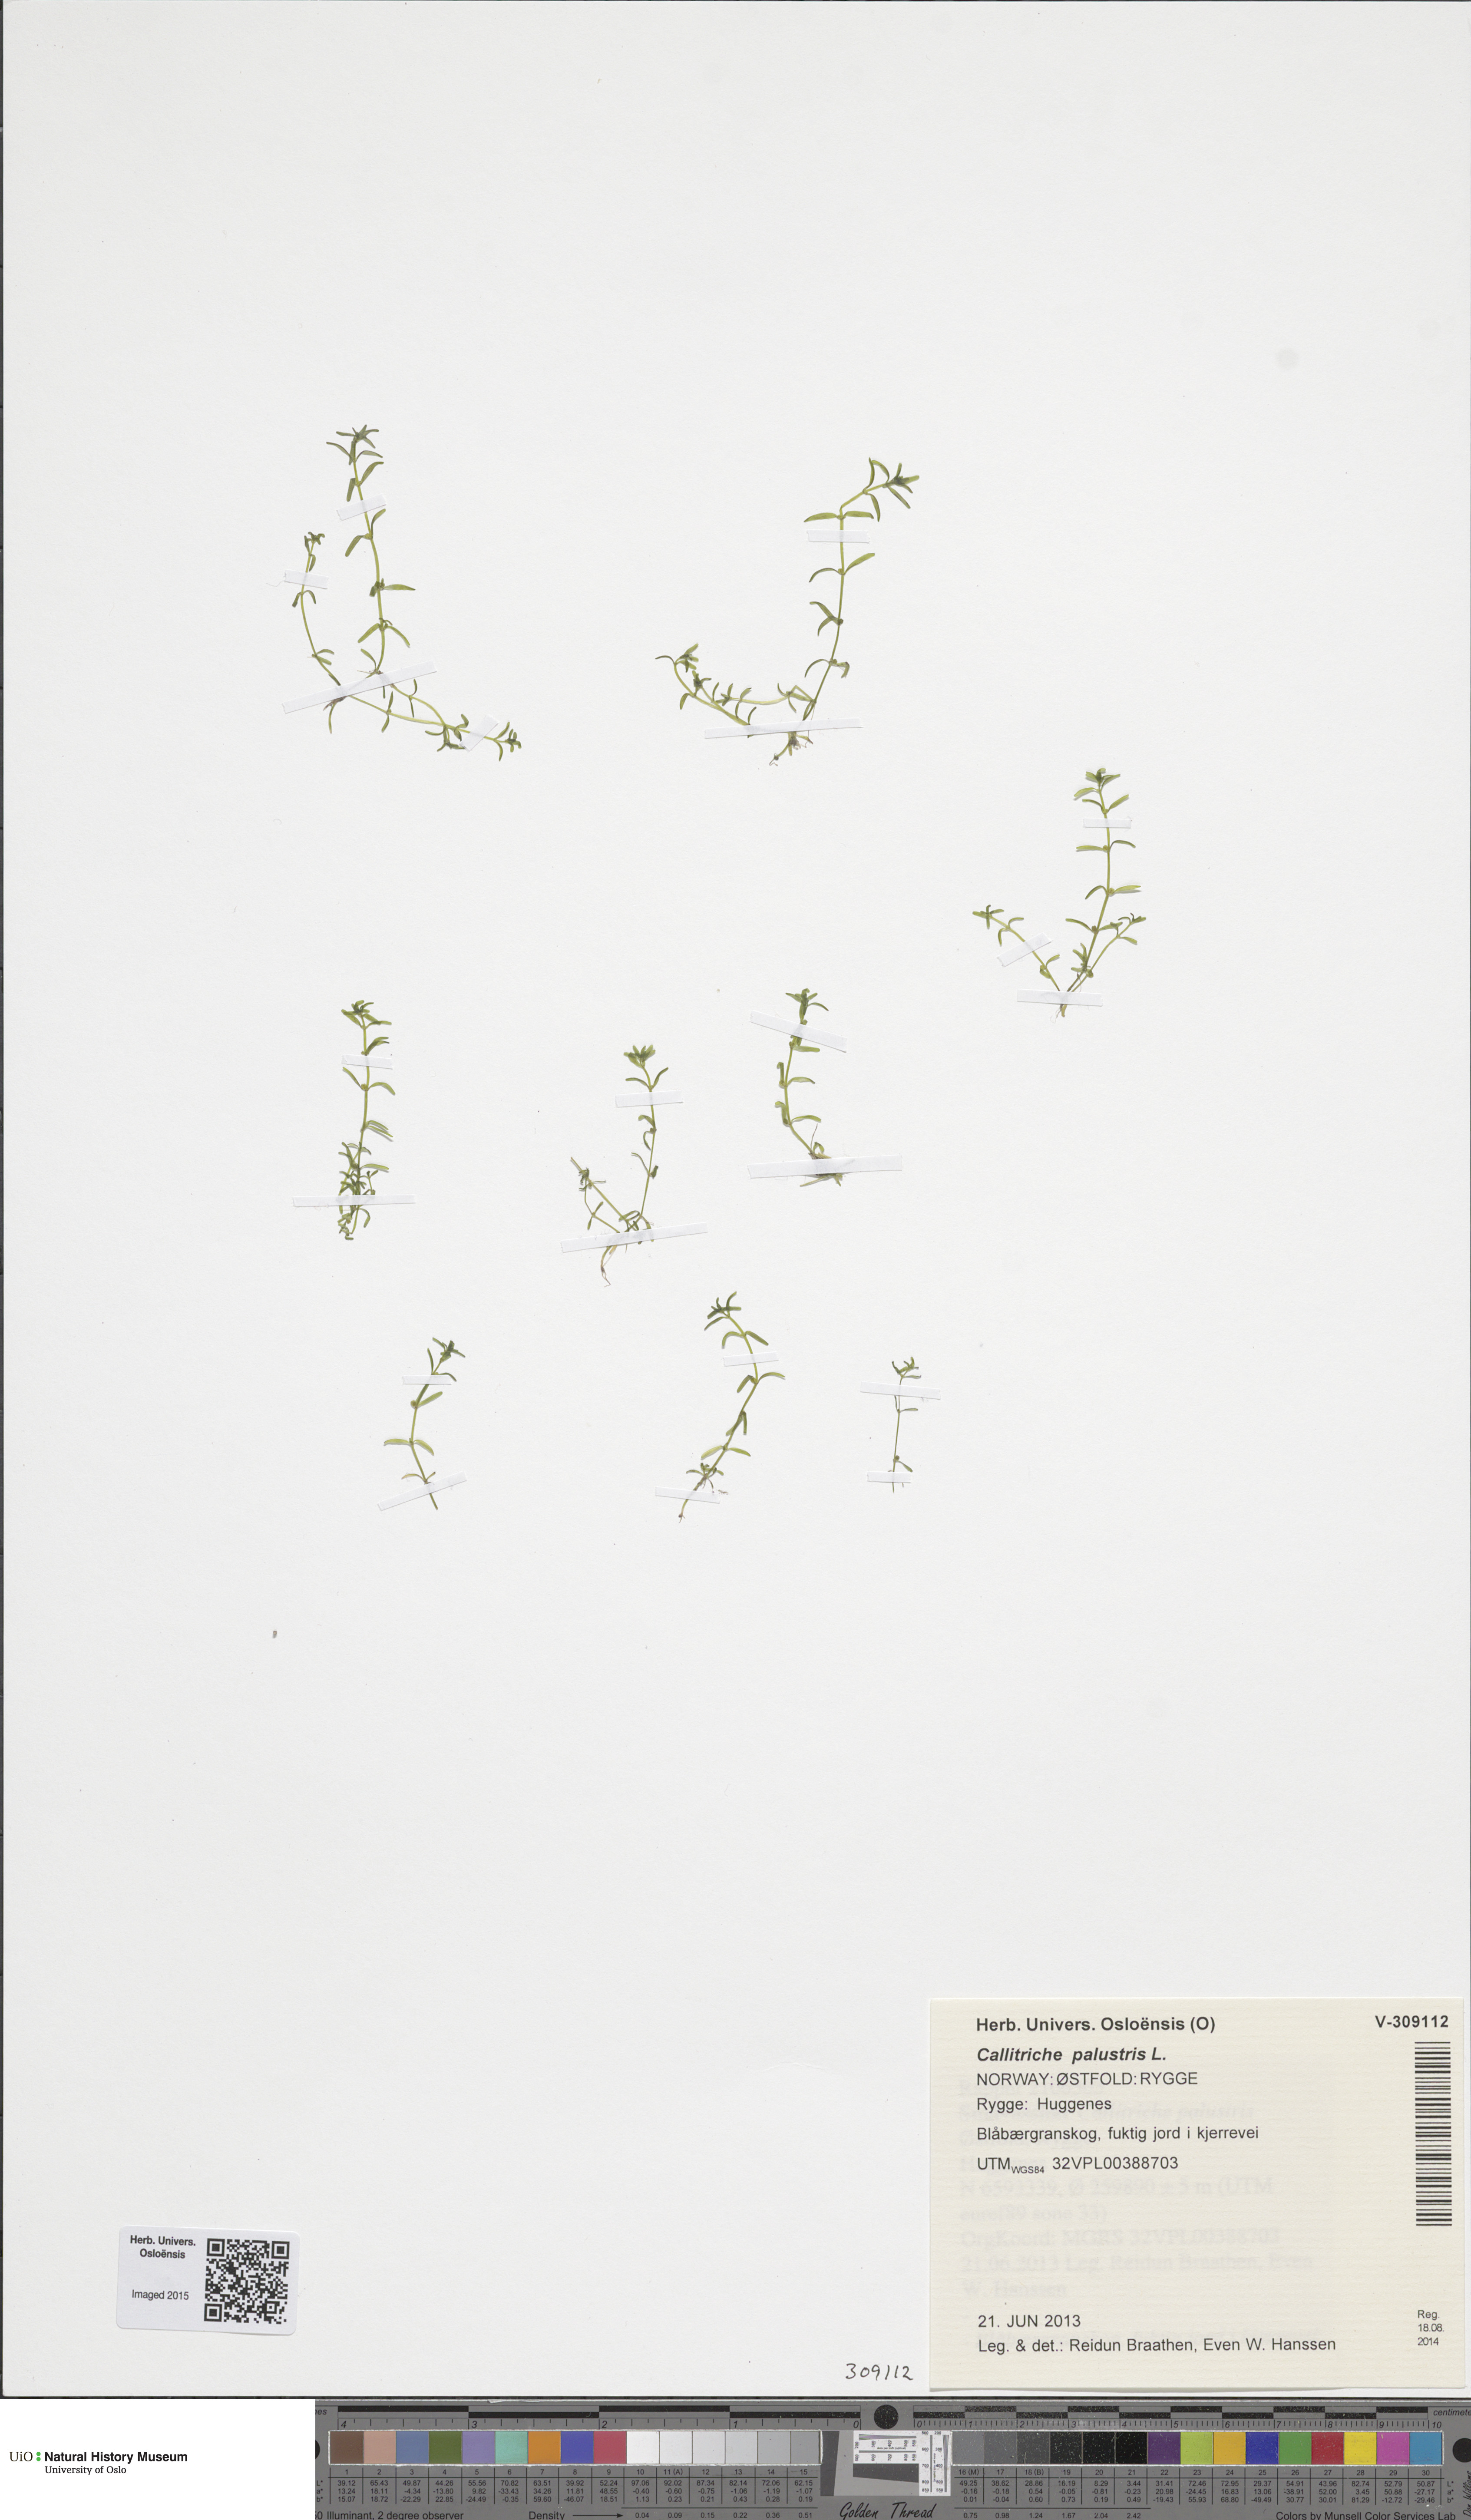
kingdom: Plantae
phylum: Tracheophyta
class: Magnoliopsida
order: Lamiales
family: Plantaginaceae
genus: Callitriche
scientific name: Callitriche palustris
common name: Spring water-starwort
